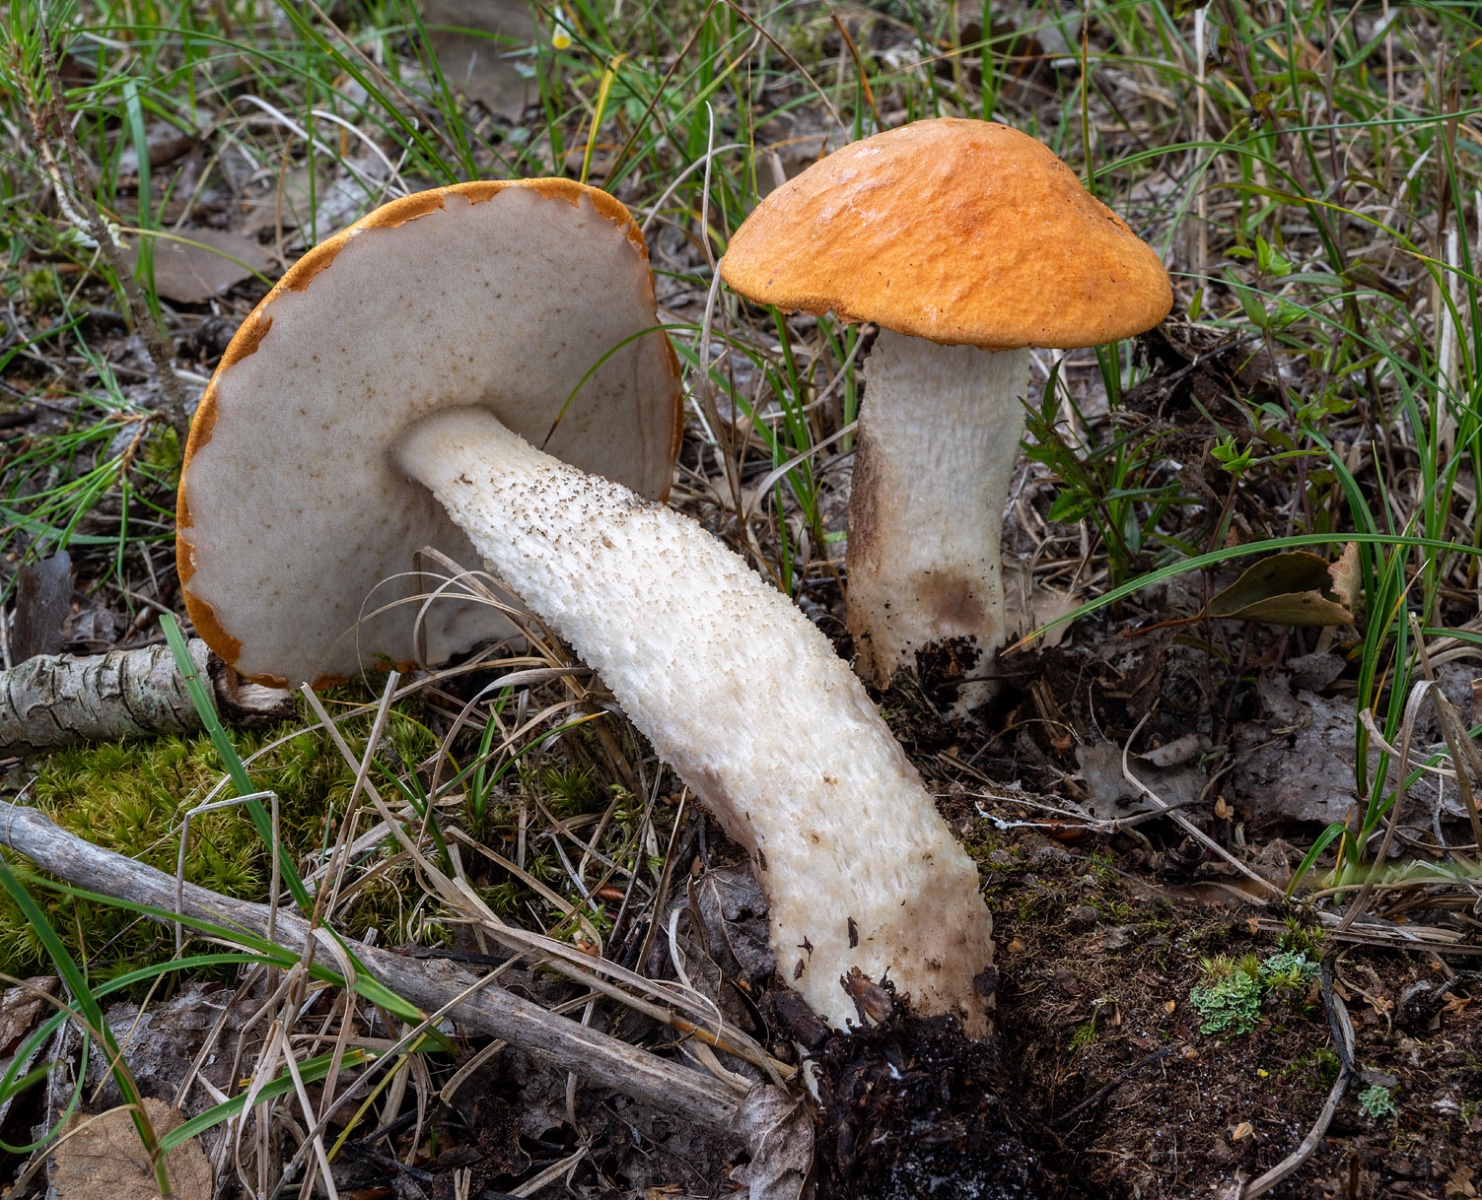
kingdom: Fungi
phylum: Basidiomycota
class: Agaricomycetes
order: Boletales
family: Boletaceae
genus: Leccinum
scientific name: Leccinum albostipitatum
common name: aspe-skælrørhat
